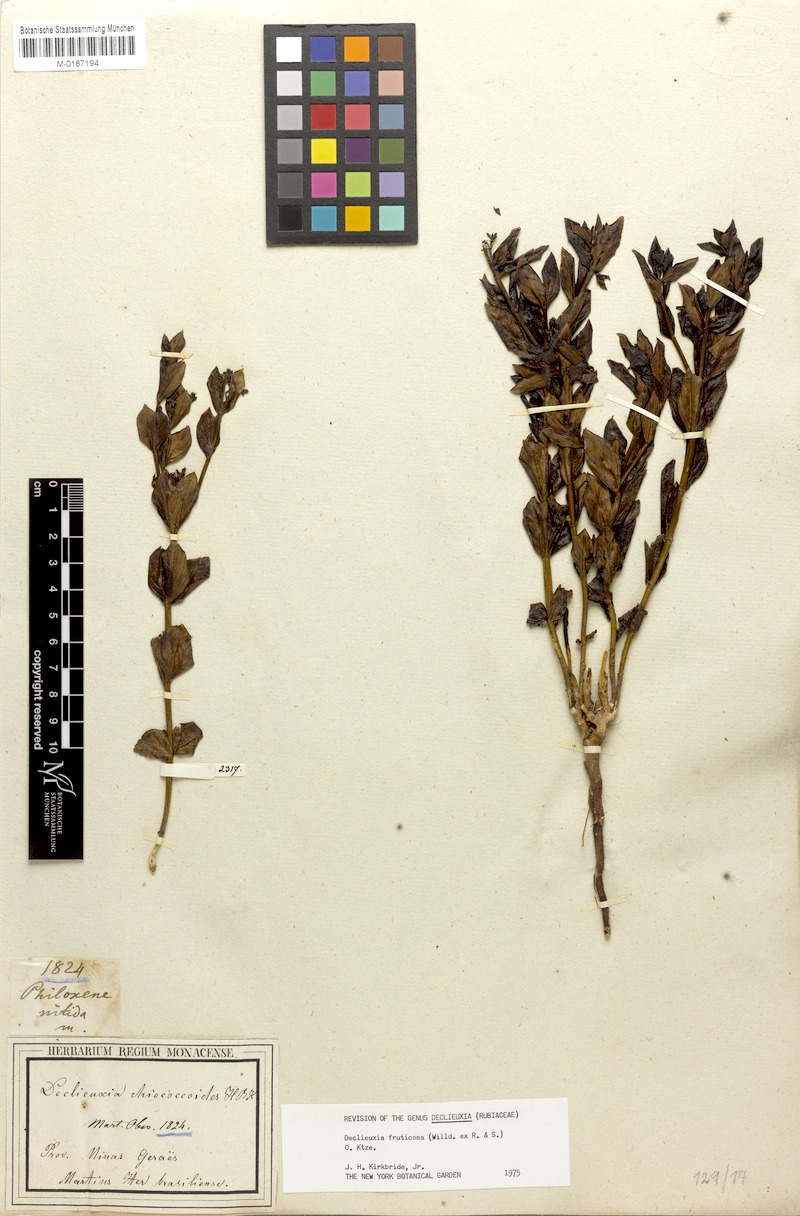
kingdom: Plantae
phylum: Tracheophyta
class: Magnoliopsida
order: Gentianales
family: Rubiaceae
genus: Declieuxia
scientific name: Declieuxia fruticosa
